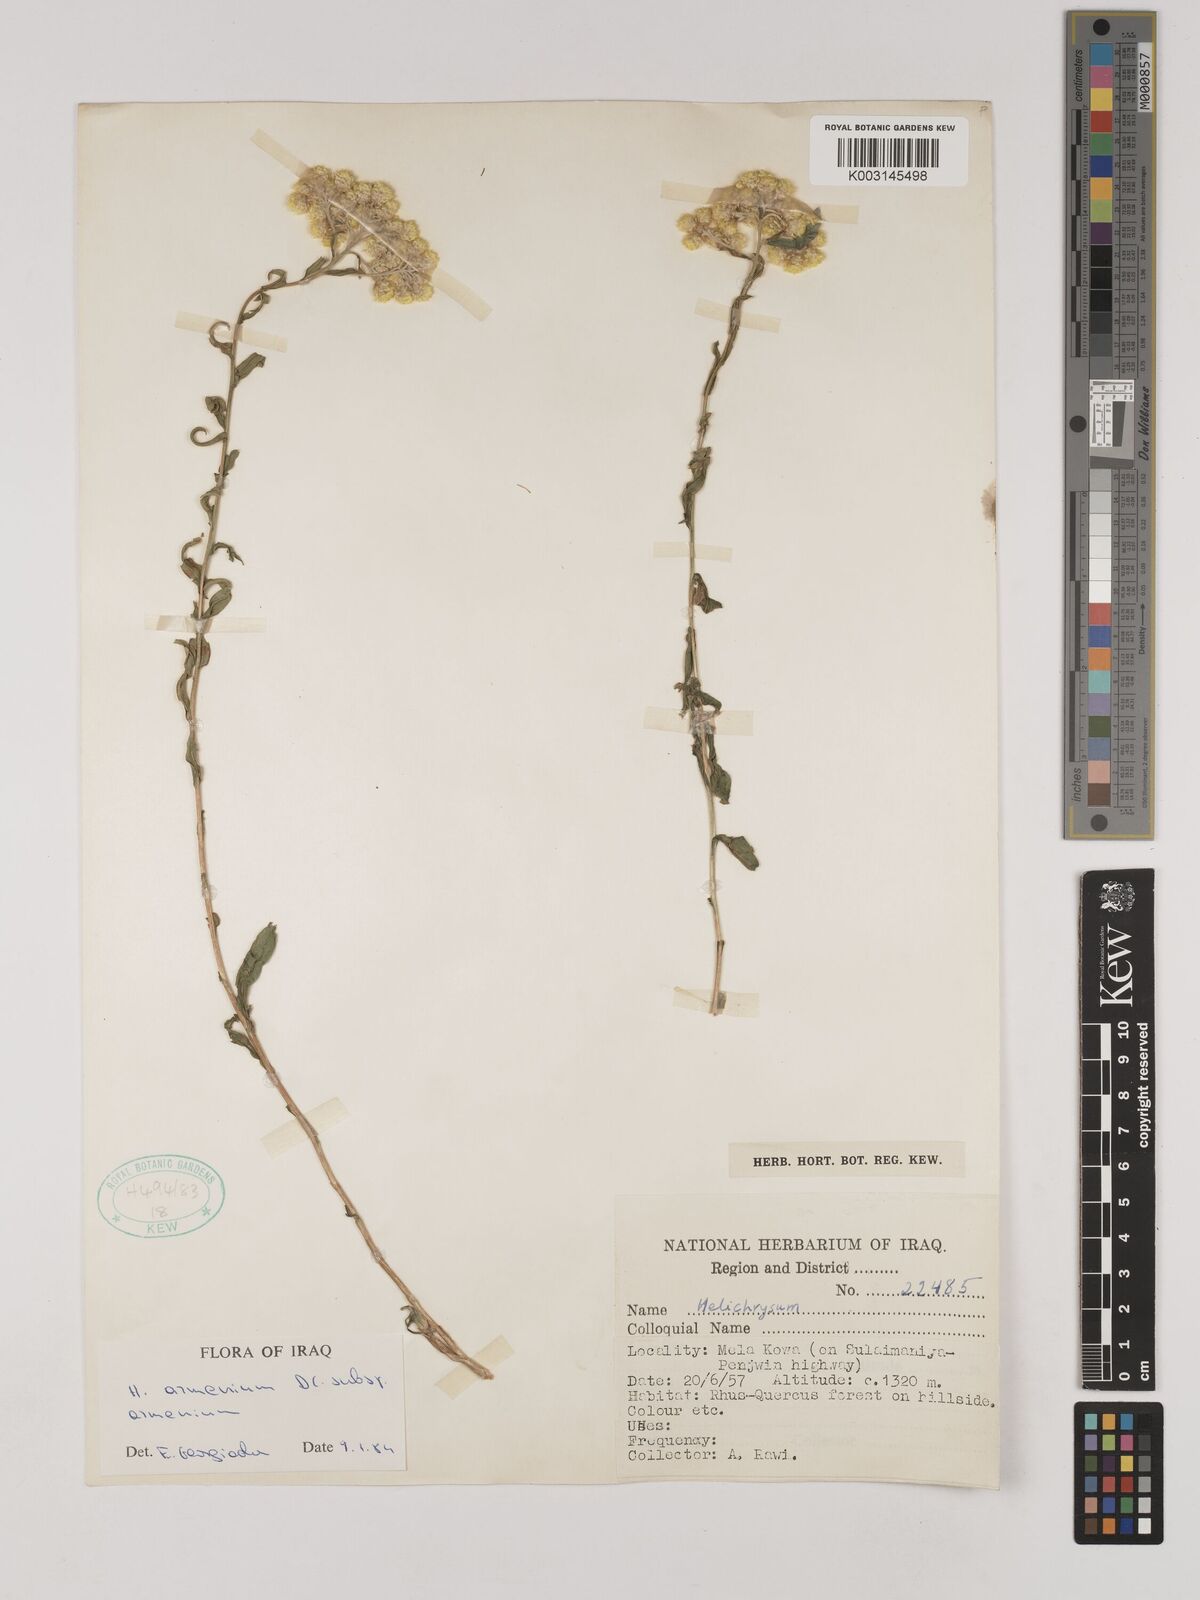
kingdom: Plantae
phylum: Tracheophyta
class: Magnoliopsida
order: Asterales
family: Asteraceae
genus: Helichrysum
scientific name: Helichrysum armenium
